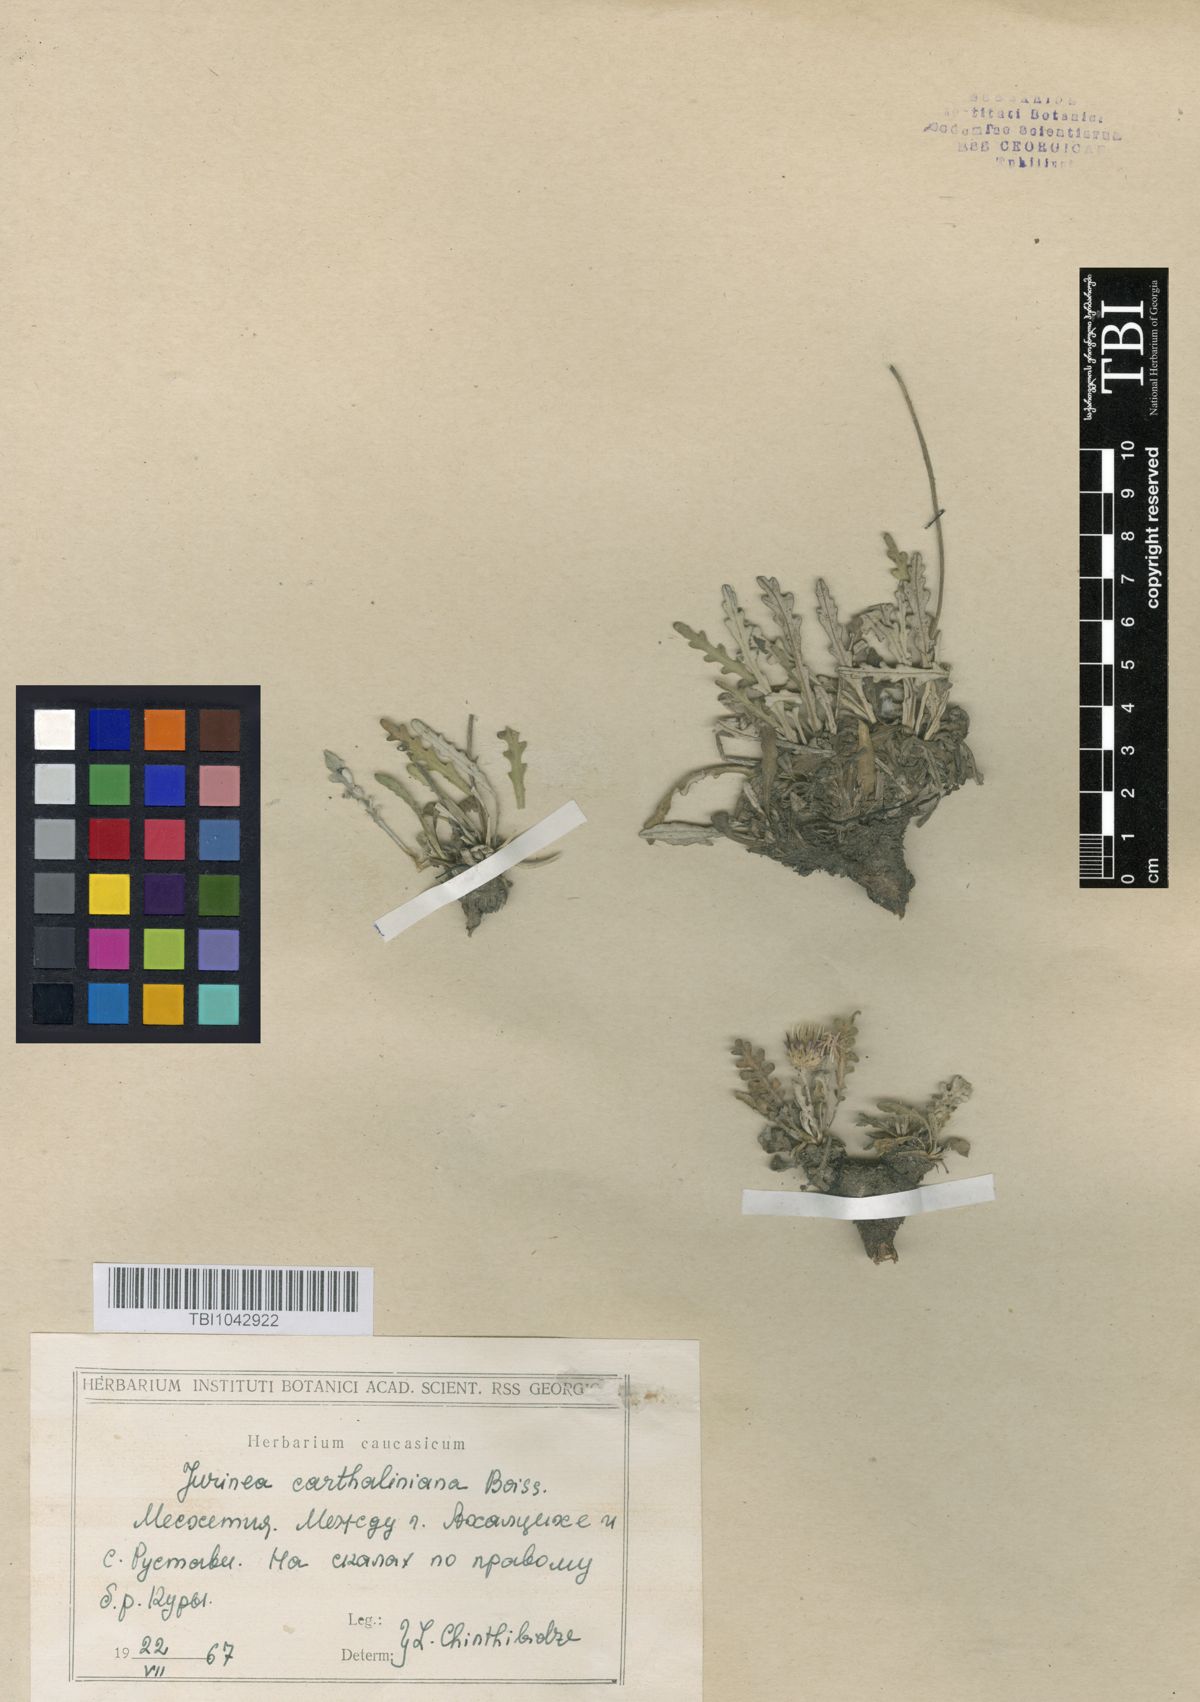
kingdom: Plantae
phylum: Tracheophyta
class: Magnoliopsida
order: Asterales
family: Asteraceae
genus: Jurinea
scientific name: Jurinea cartaliniana
